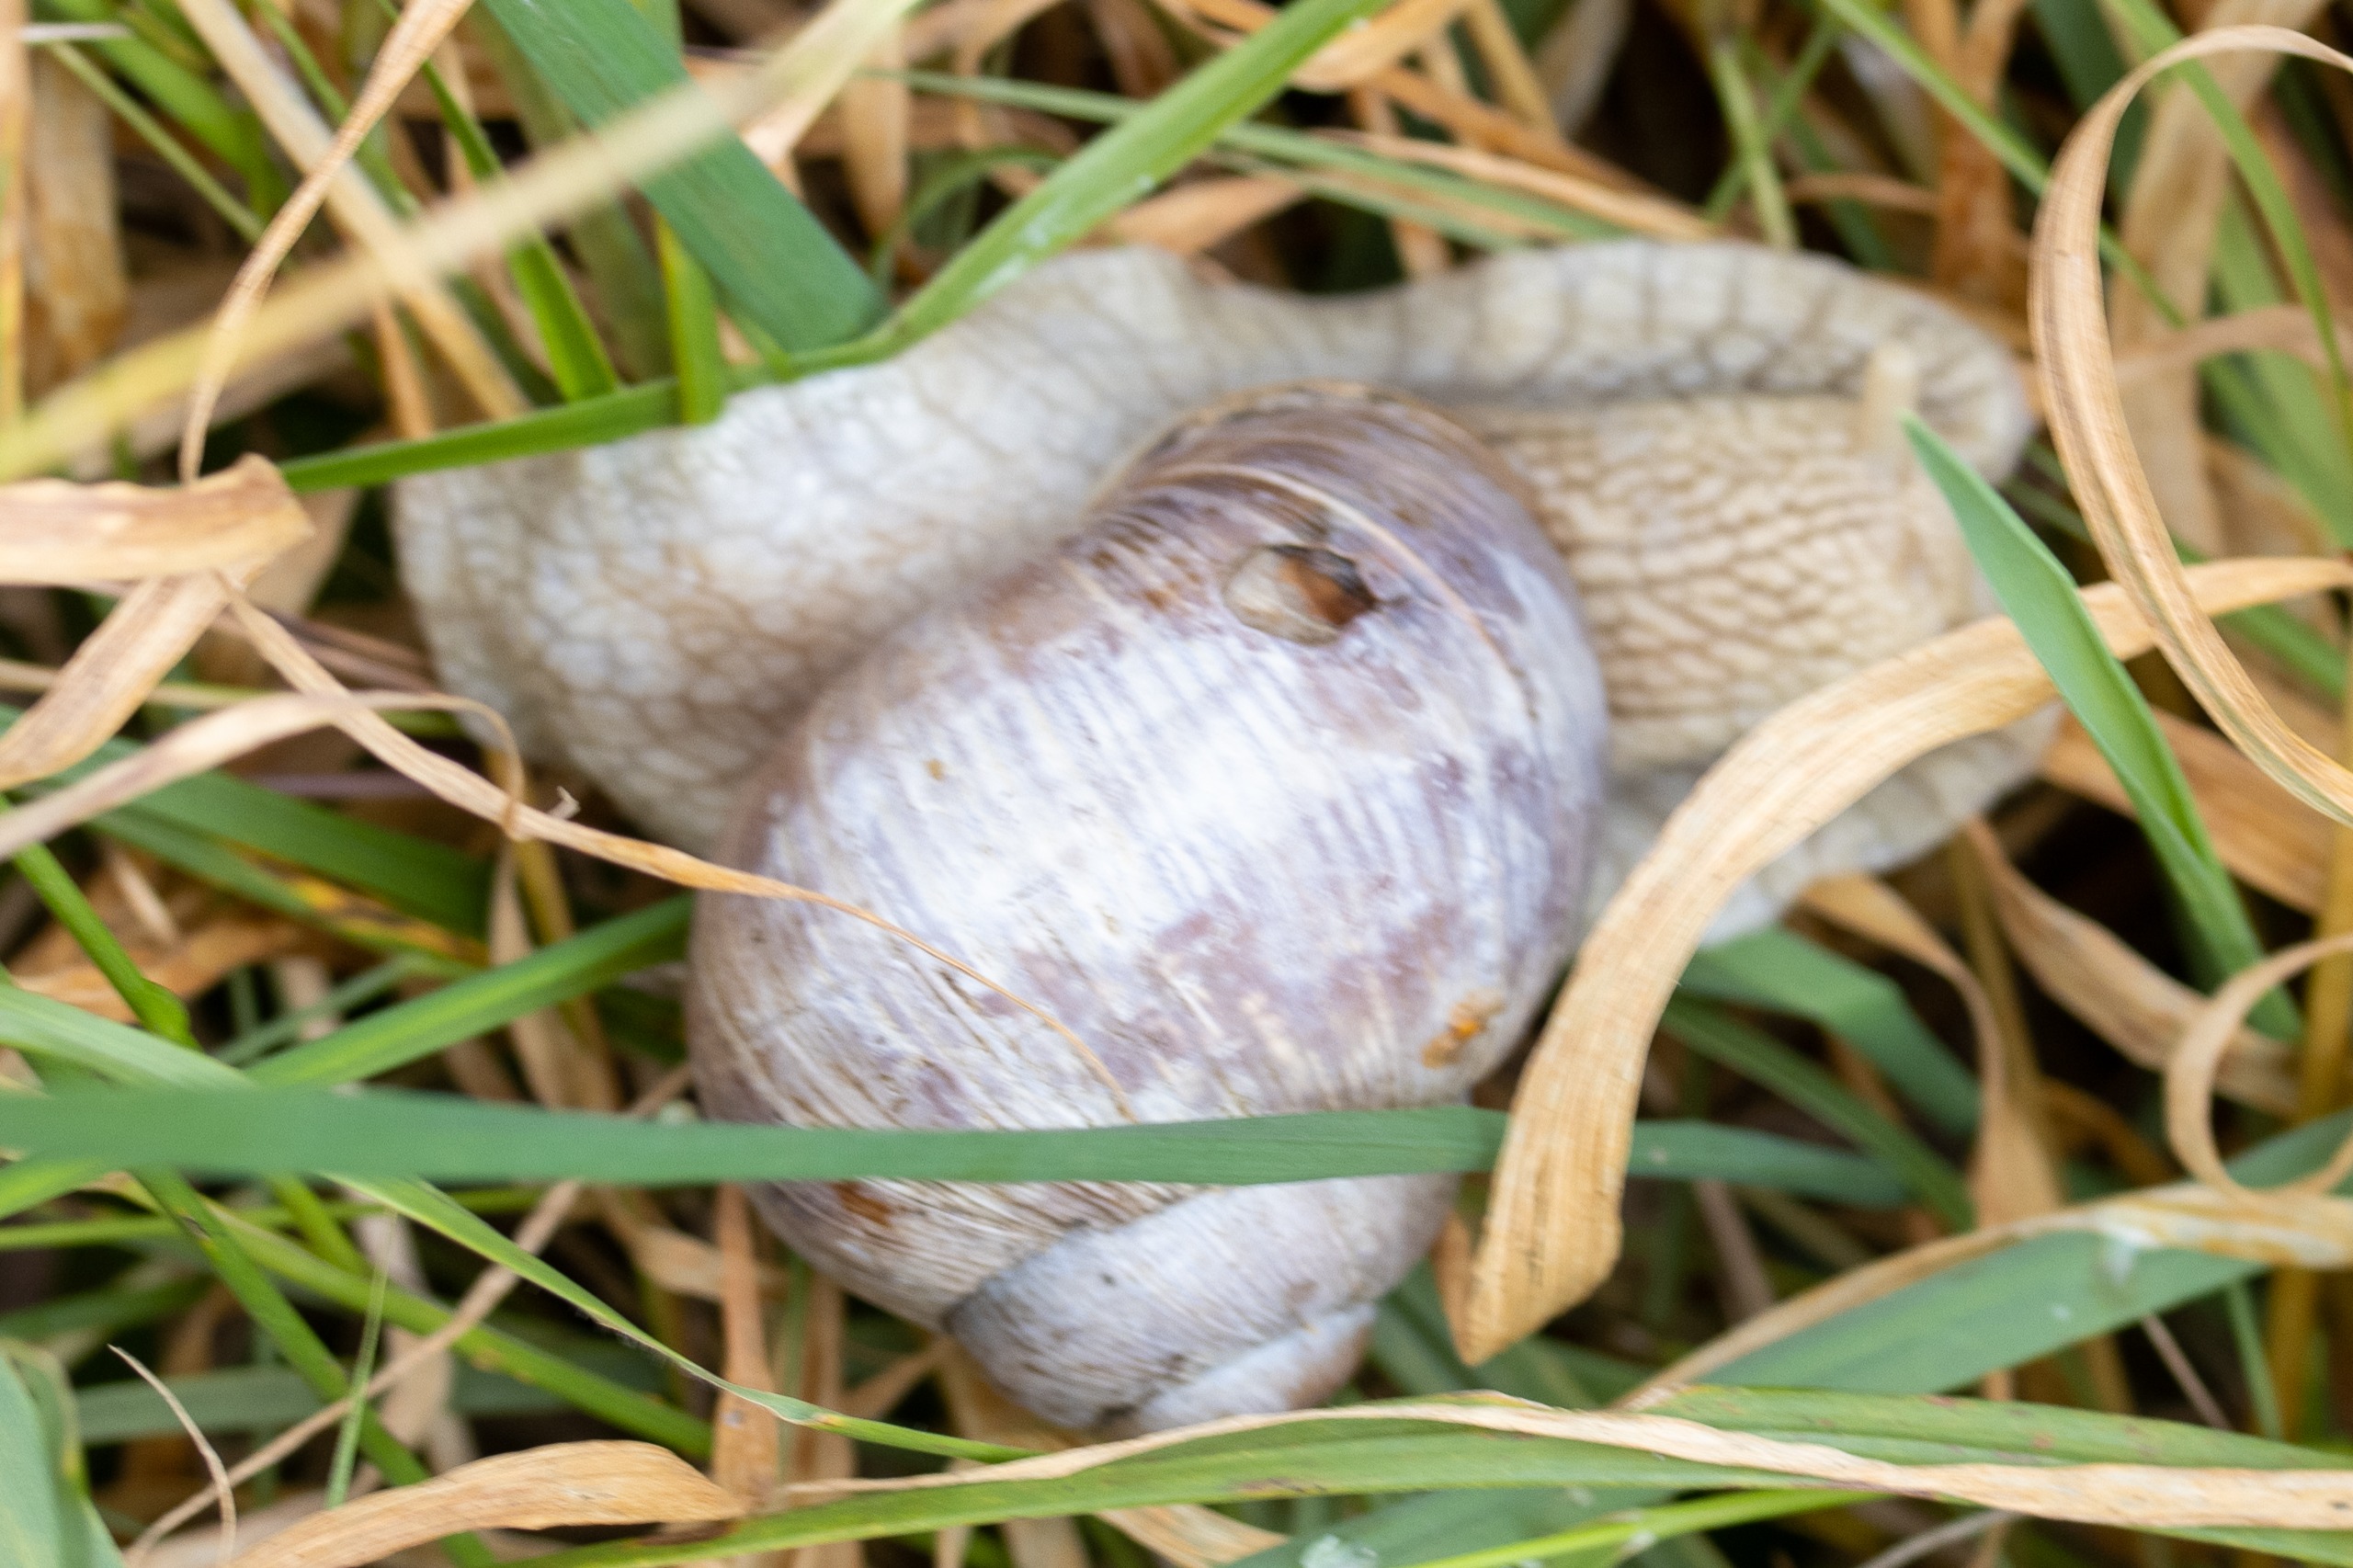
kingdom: Animalia
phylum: Mollusca
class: Gastropoda
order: Stylommatophora
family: Helicidae
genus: Helix
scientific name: Helix pomatia
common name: Vinbjergsnegl
